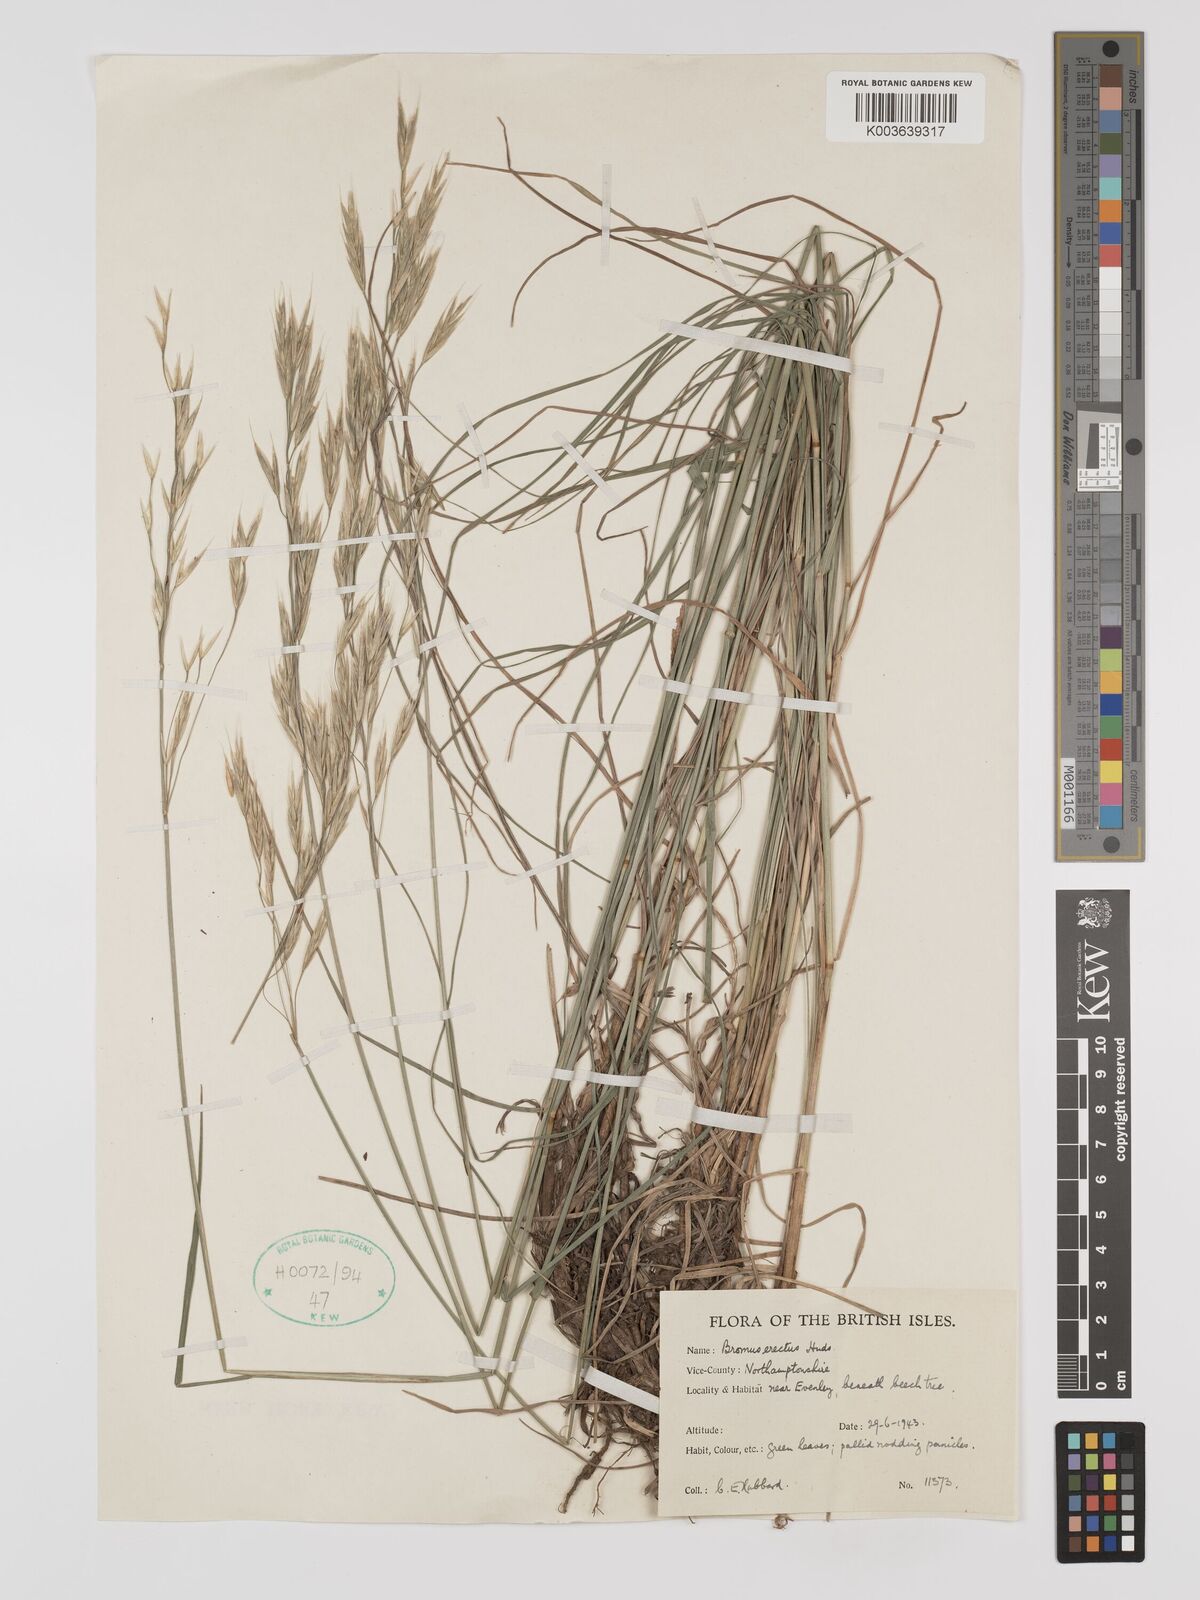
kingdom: Plantae
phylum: Tracheophyta
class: Liliopsida
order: Poales
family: Poaceae
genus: Bromus
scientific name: Bromus erectus
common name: Erect brome
